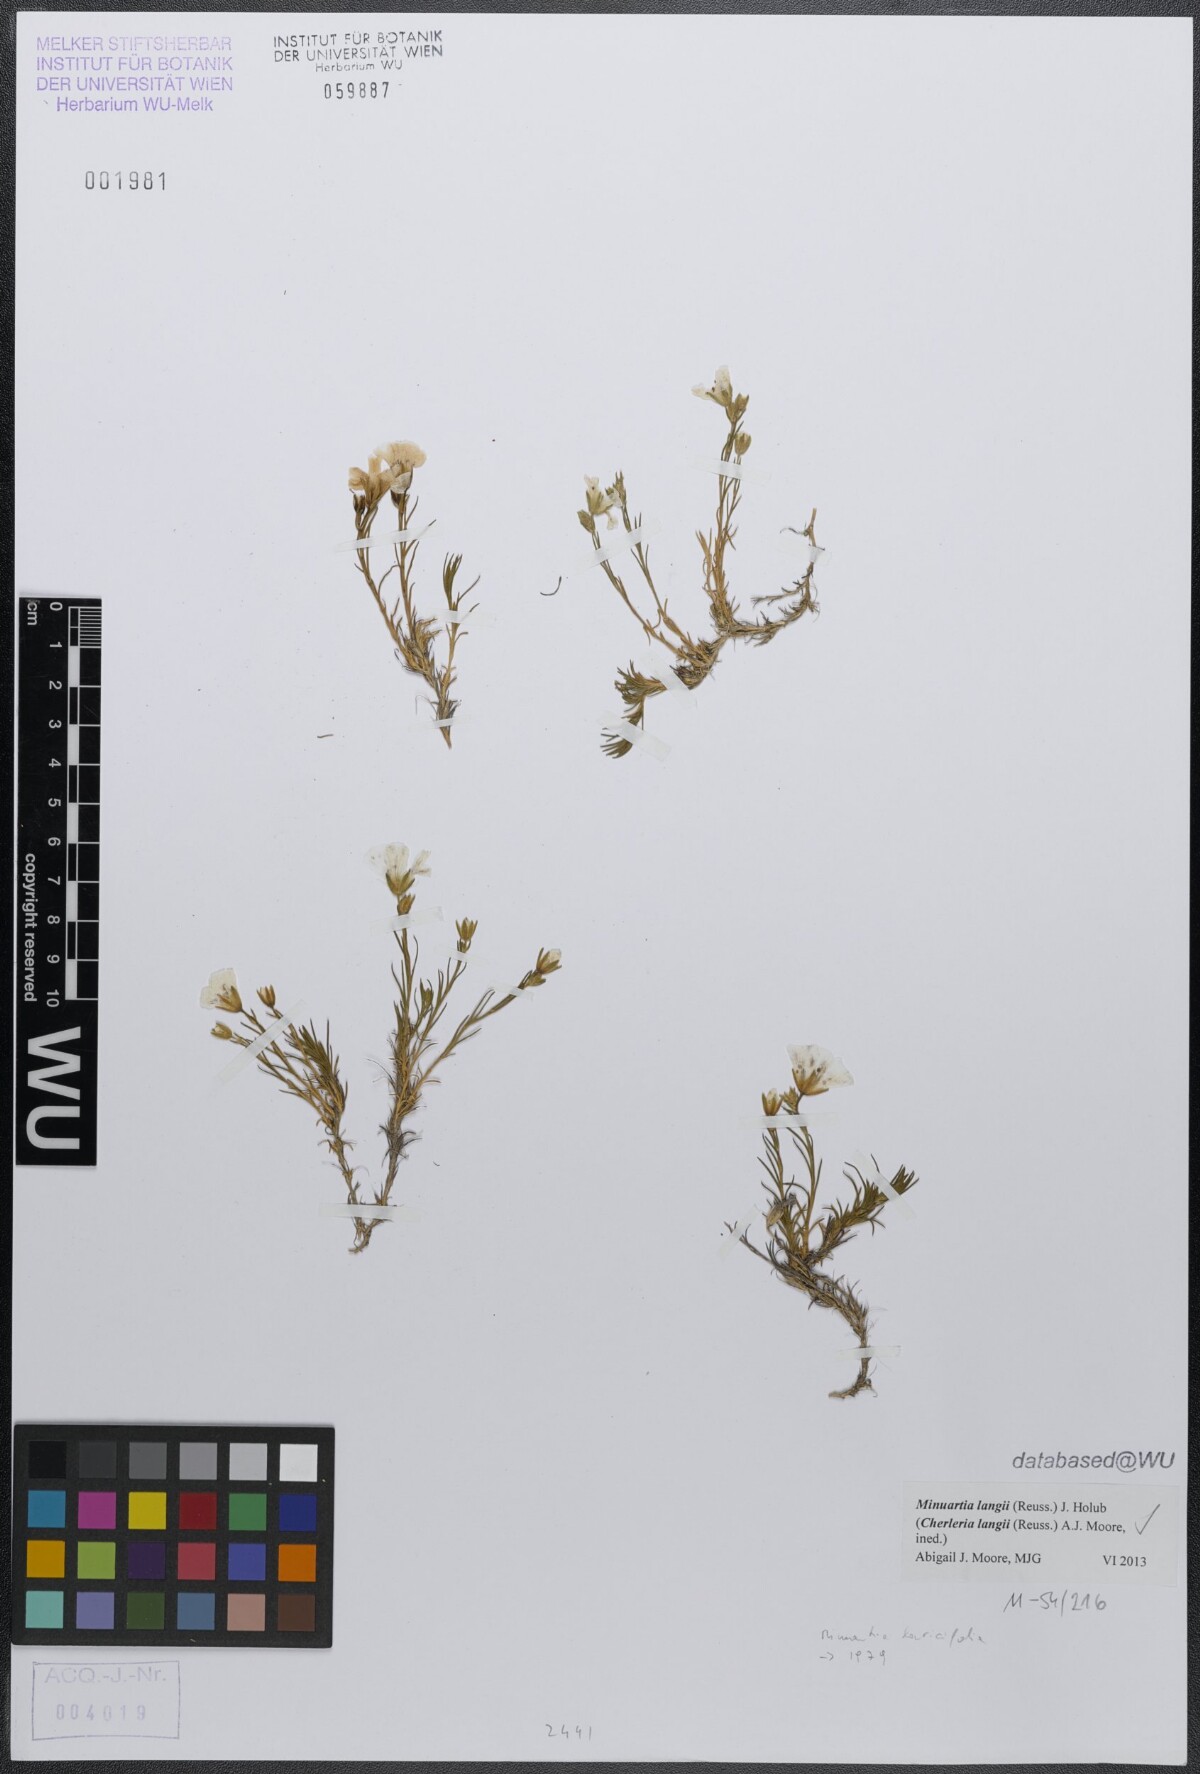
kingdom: Plantae
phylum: Tracheophyta
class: Magnoliopsida
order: Caryophyllales
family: Caryophyllaceae
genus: Cherleria
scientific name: Cherleria langii
